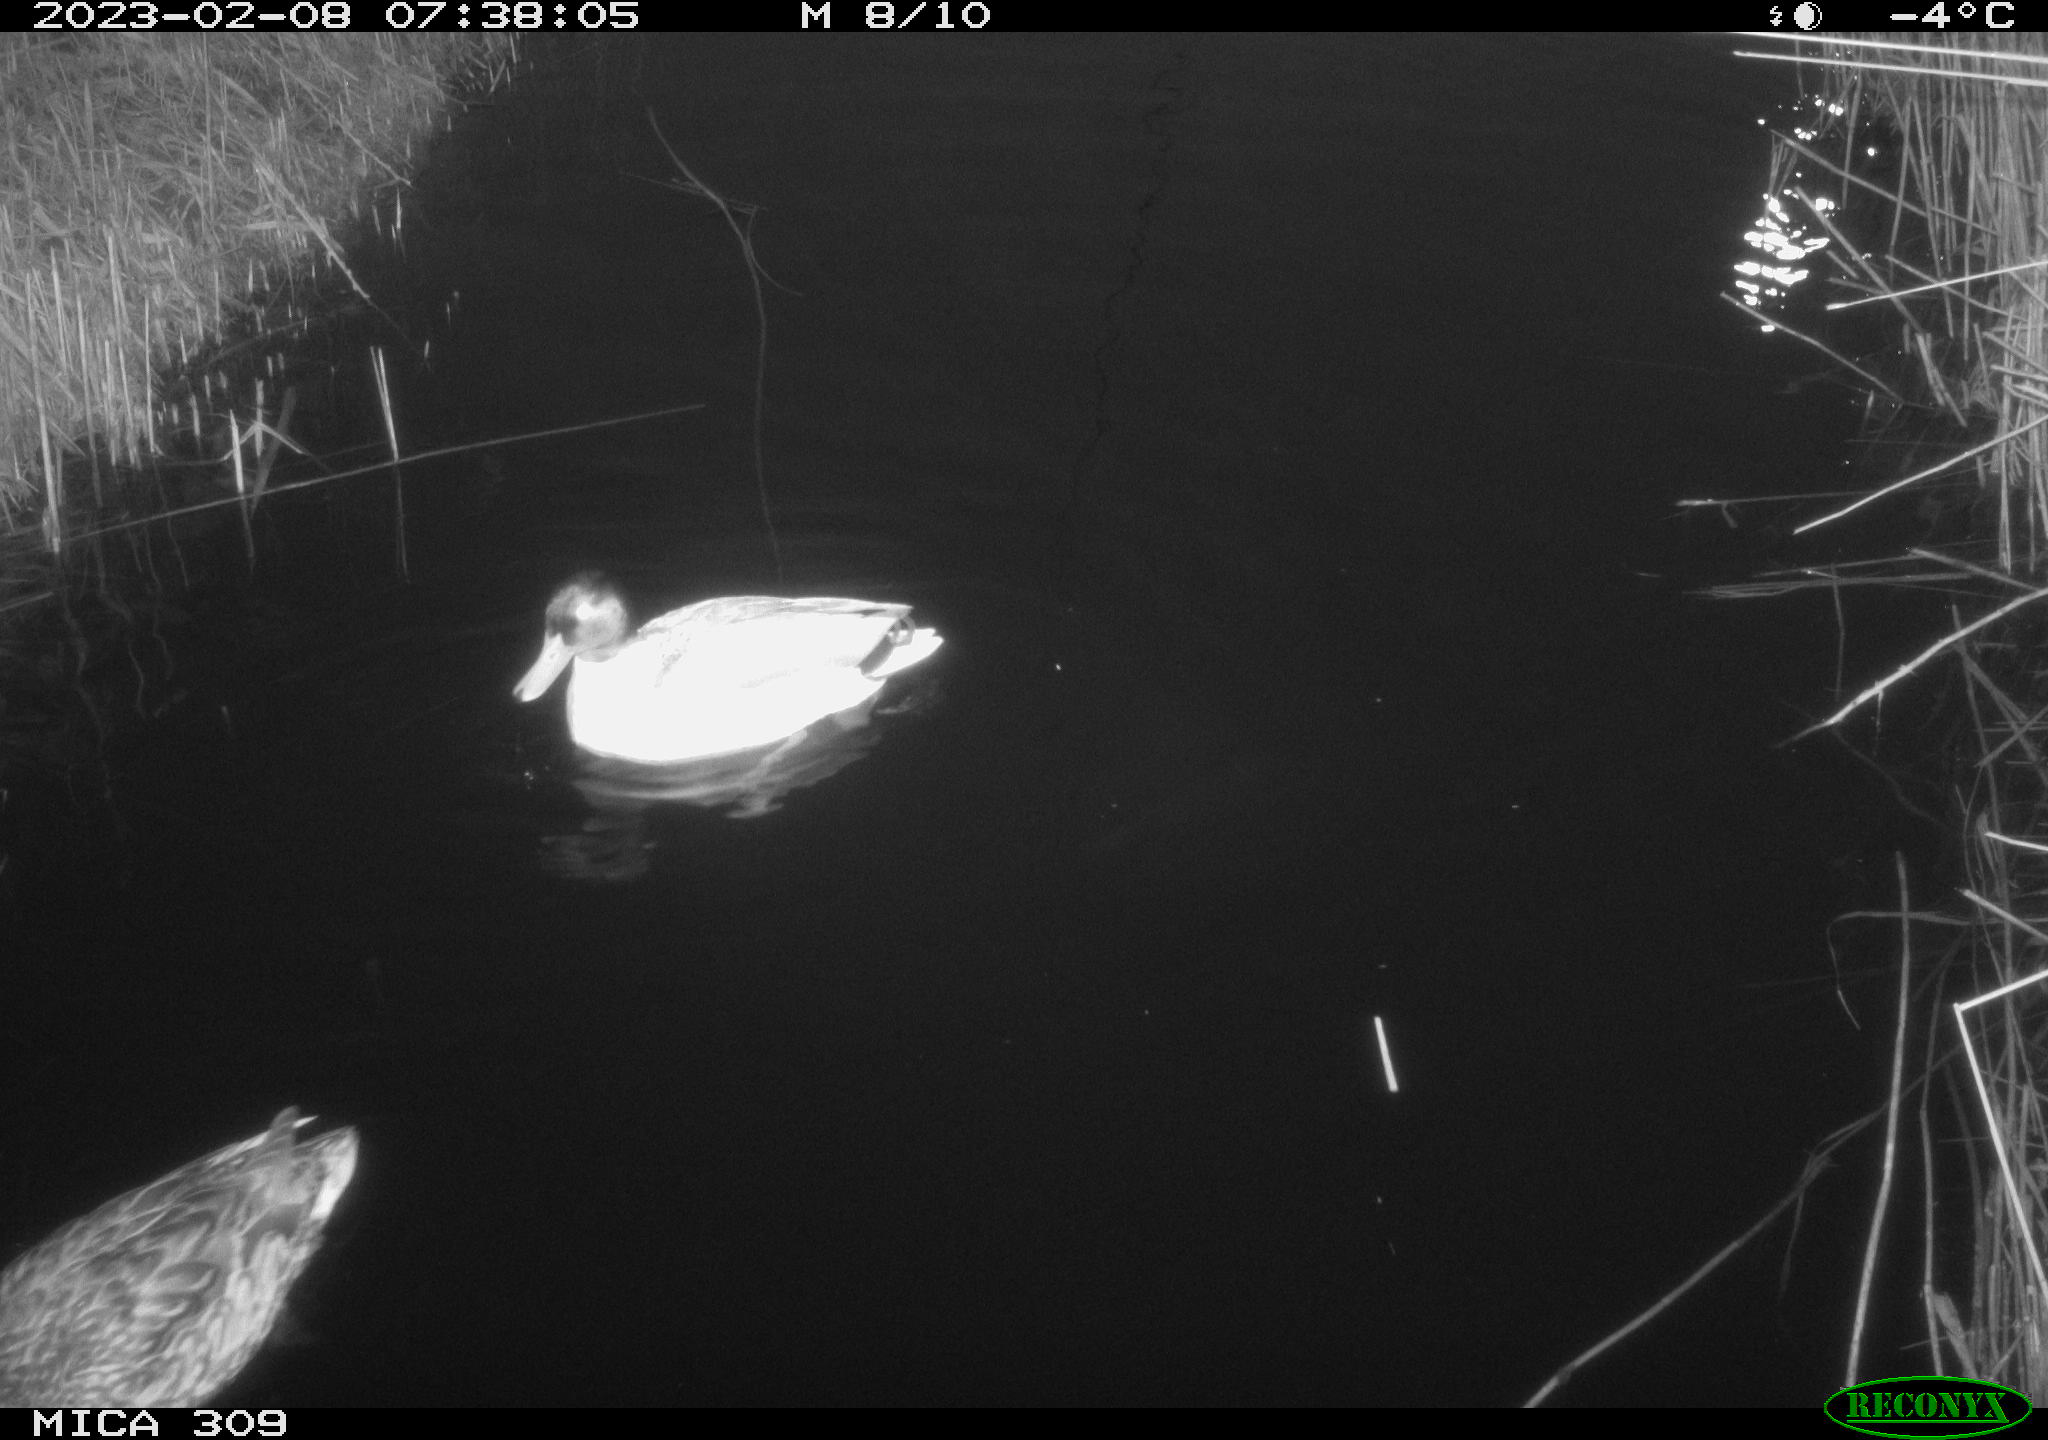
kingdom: Animalia
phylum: Chordata
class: Aves
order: Anseriformes
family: Anatidae
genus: Anas
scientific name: Anas
